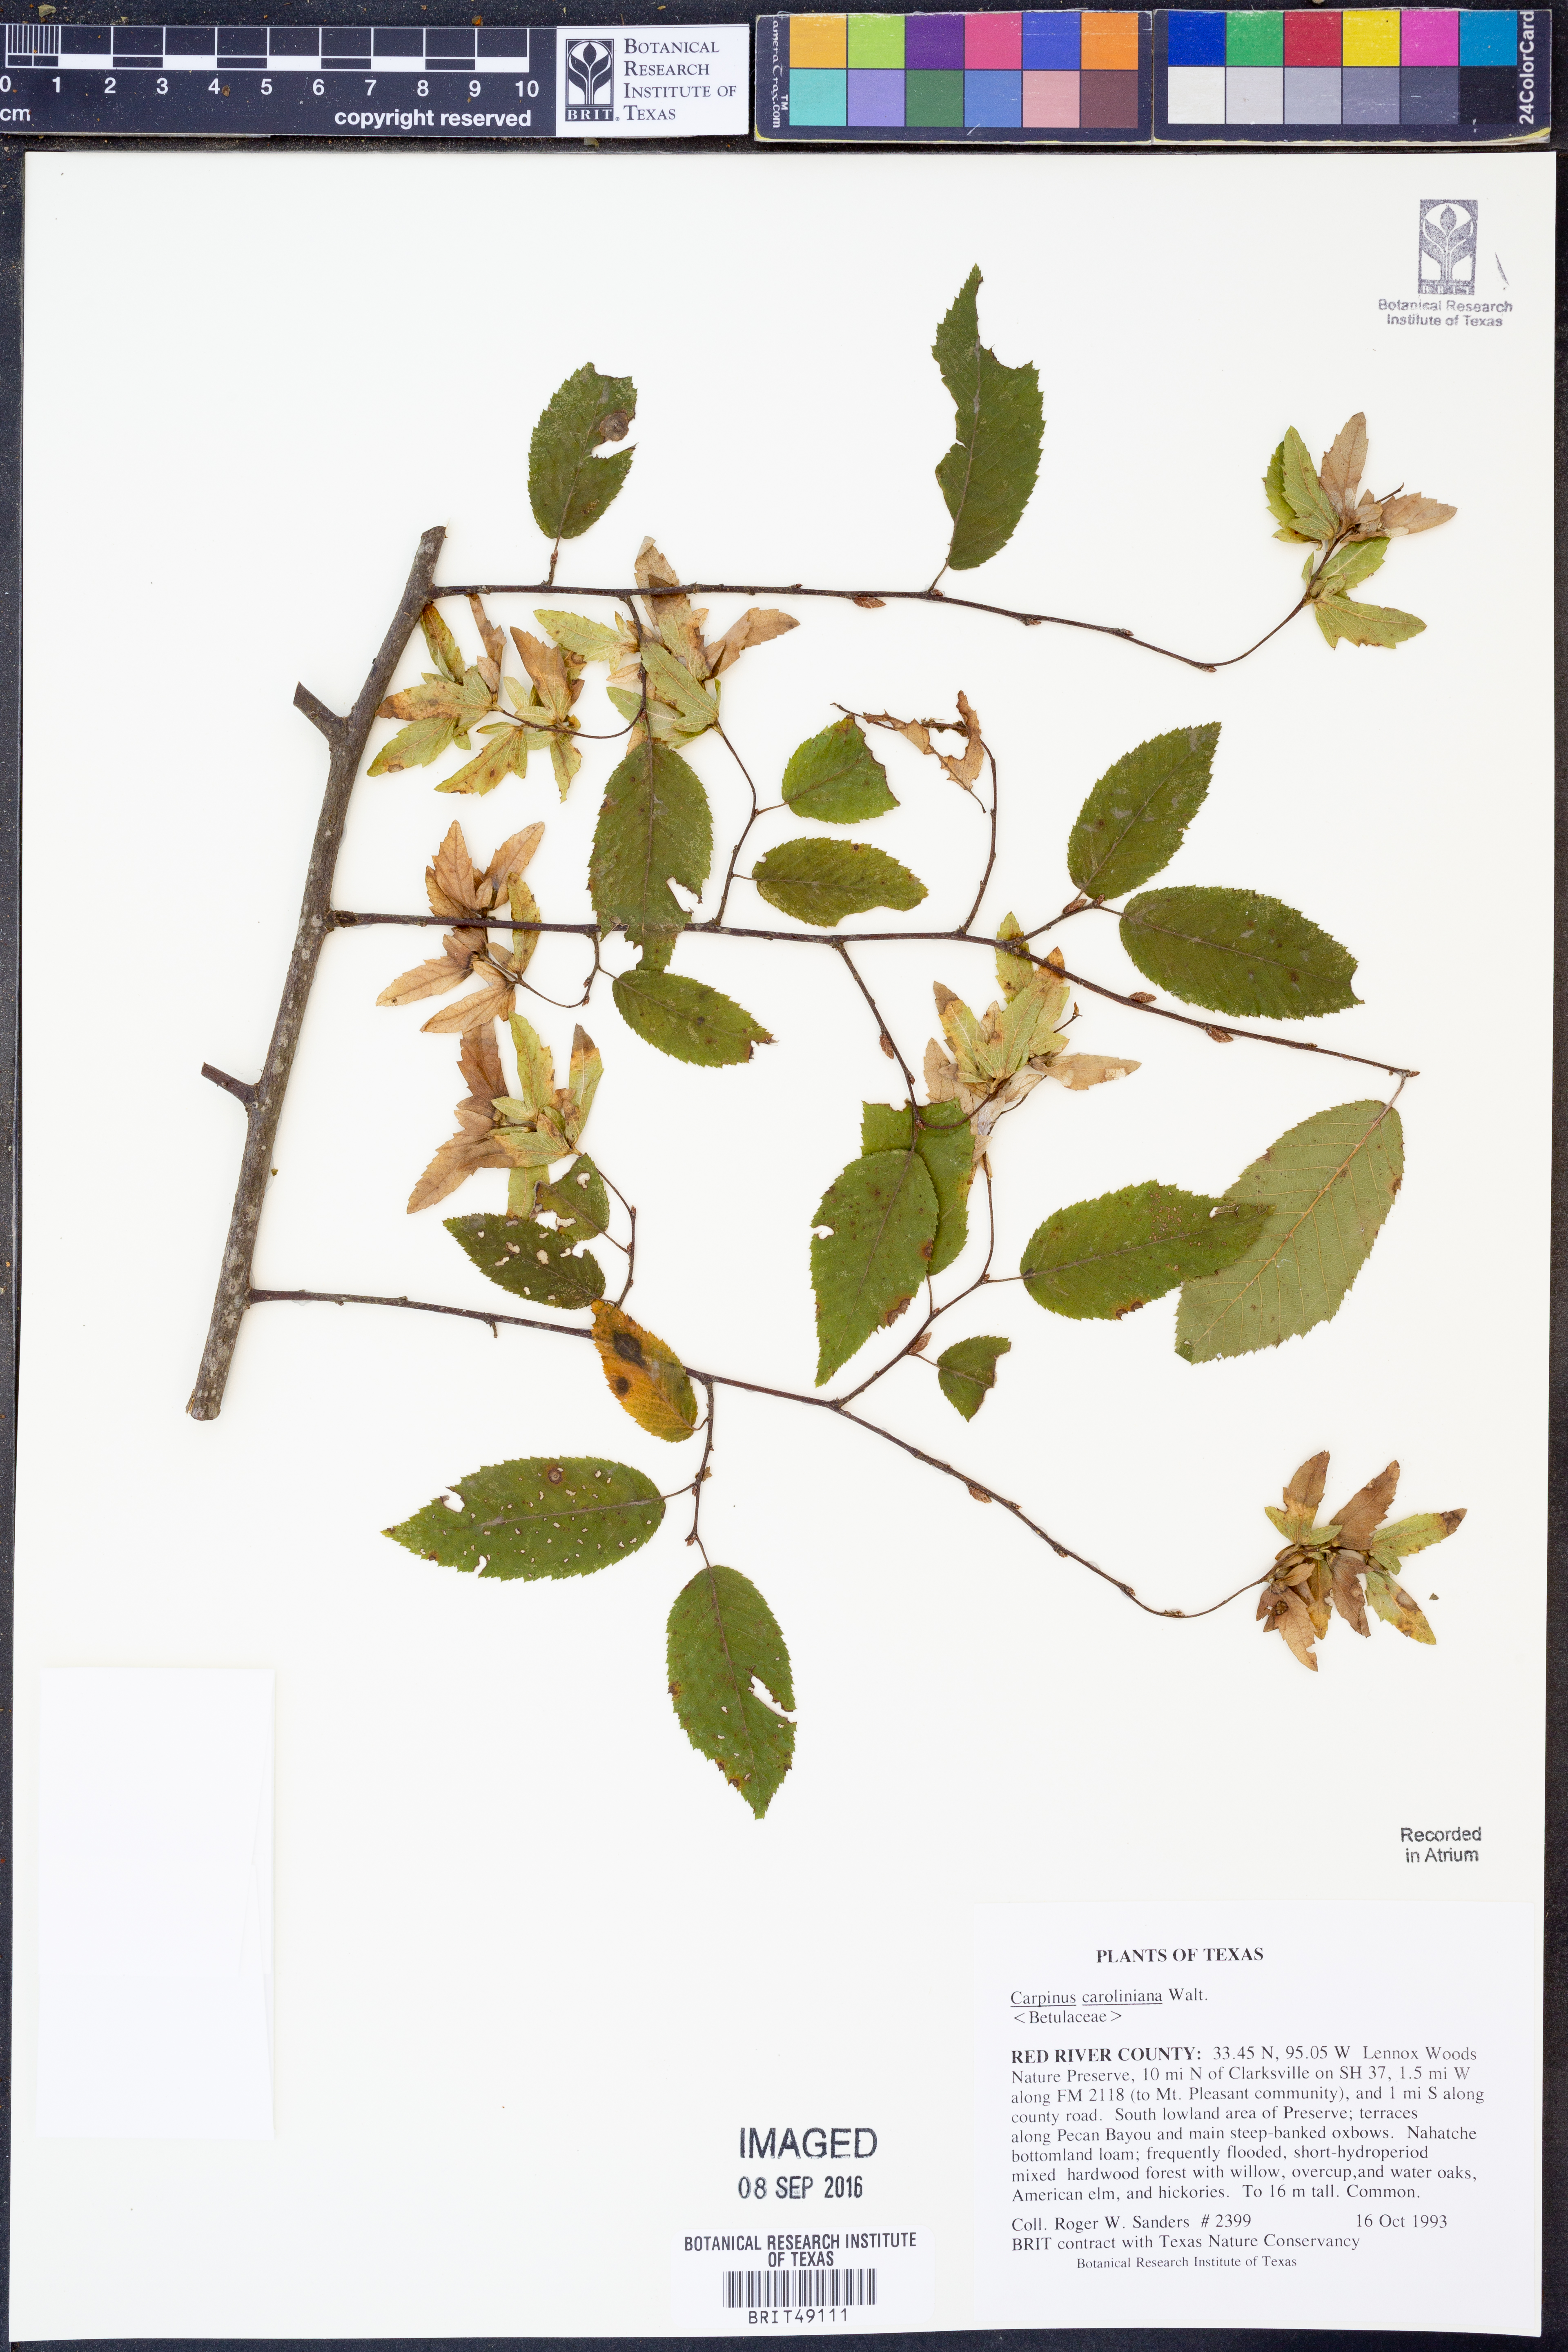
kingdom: Plantae
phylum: Tracheophyta
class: Magnoliopsida
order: Fagales
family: Betulaceae
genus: Carpinus
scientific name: Carpinus caroliniana
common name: American hornbeam
